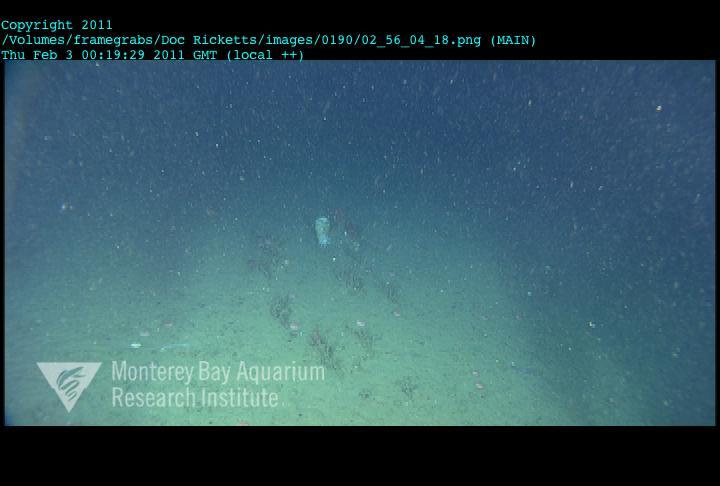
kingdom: Animalia
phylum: Porifera
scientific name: Porifera
